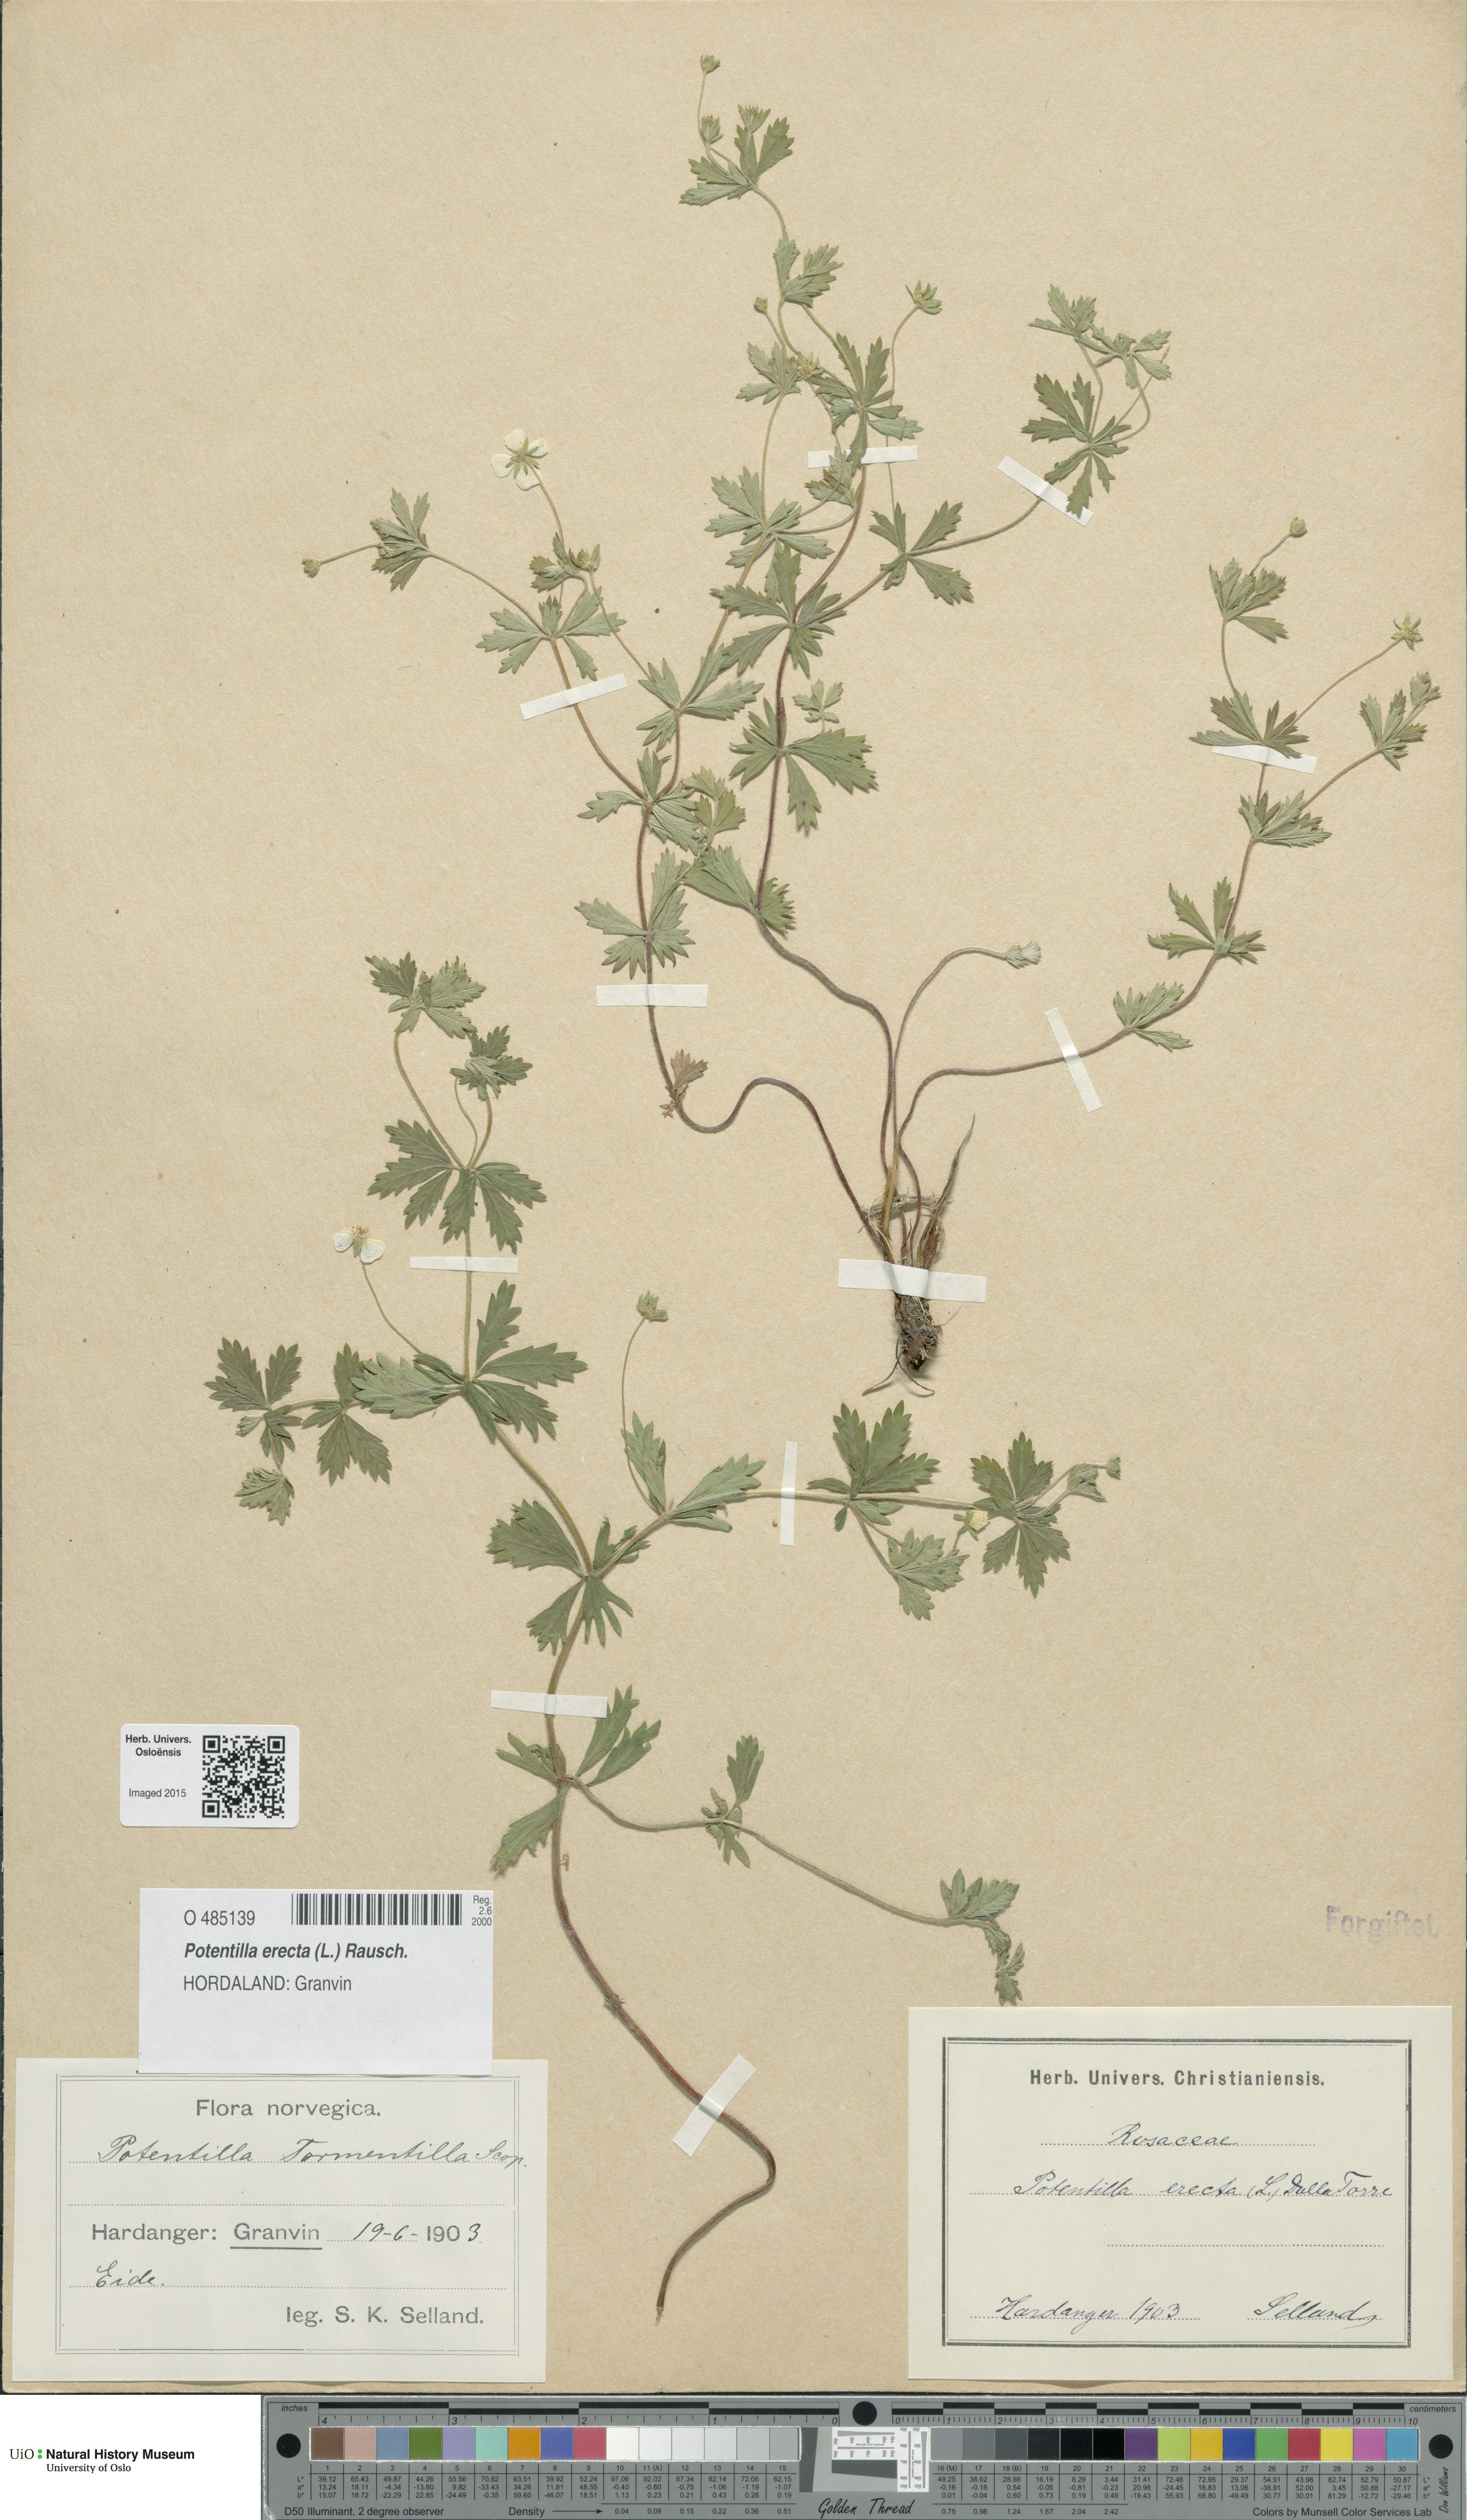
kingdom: Plantae
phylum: Tracheophyta
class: Magnoliopsida
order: Rosales
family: Rosaceae
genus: Potentilla
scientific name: Potentilla erecta
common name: Tormentil
